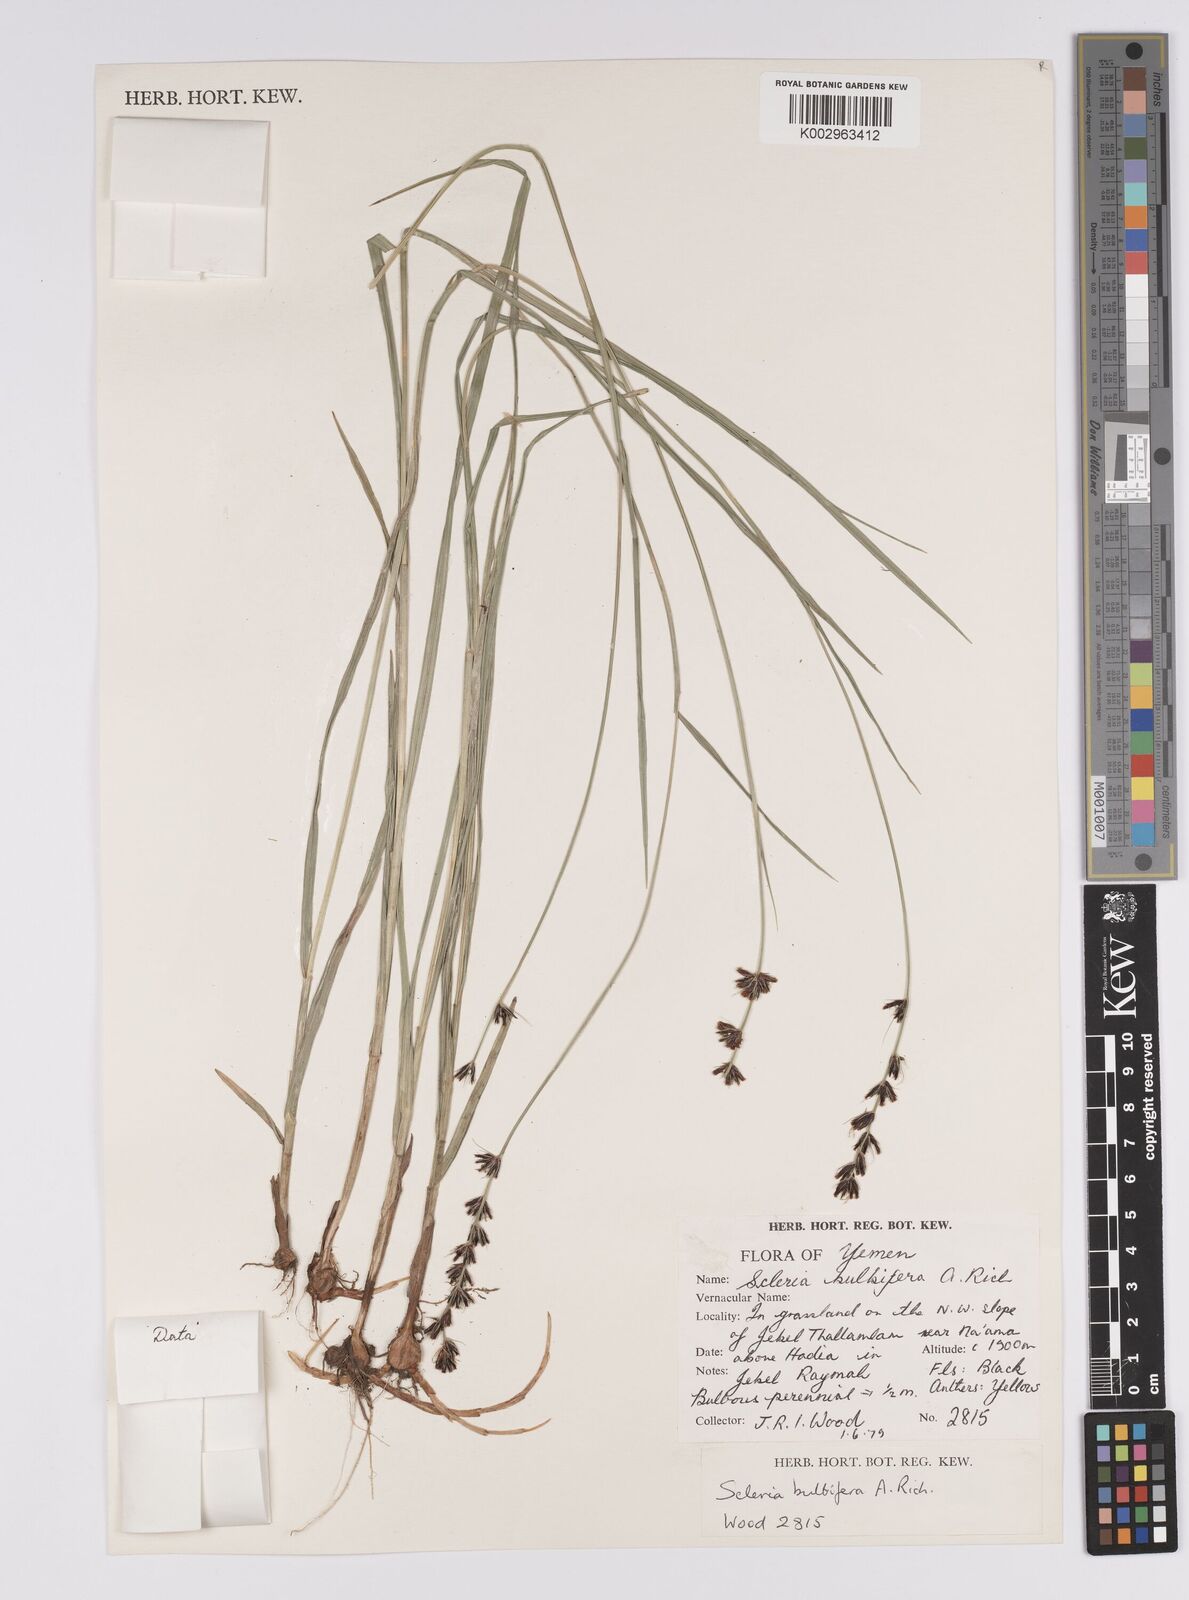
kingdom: Plantae
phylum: Tracheophyta
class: Liliopsida
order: Poales
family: Cyperaceae
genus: Scleria
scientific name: Scleria bulbifera
